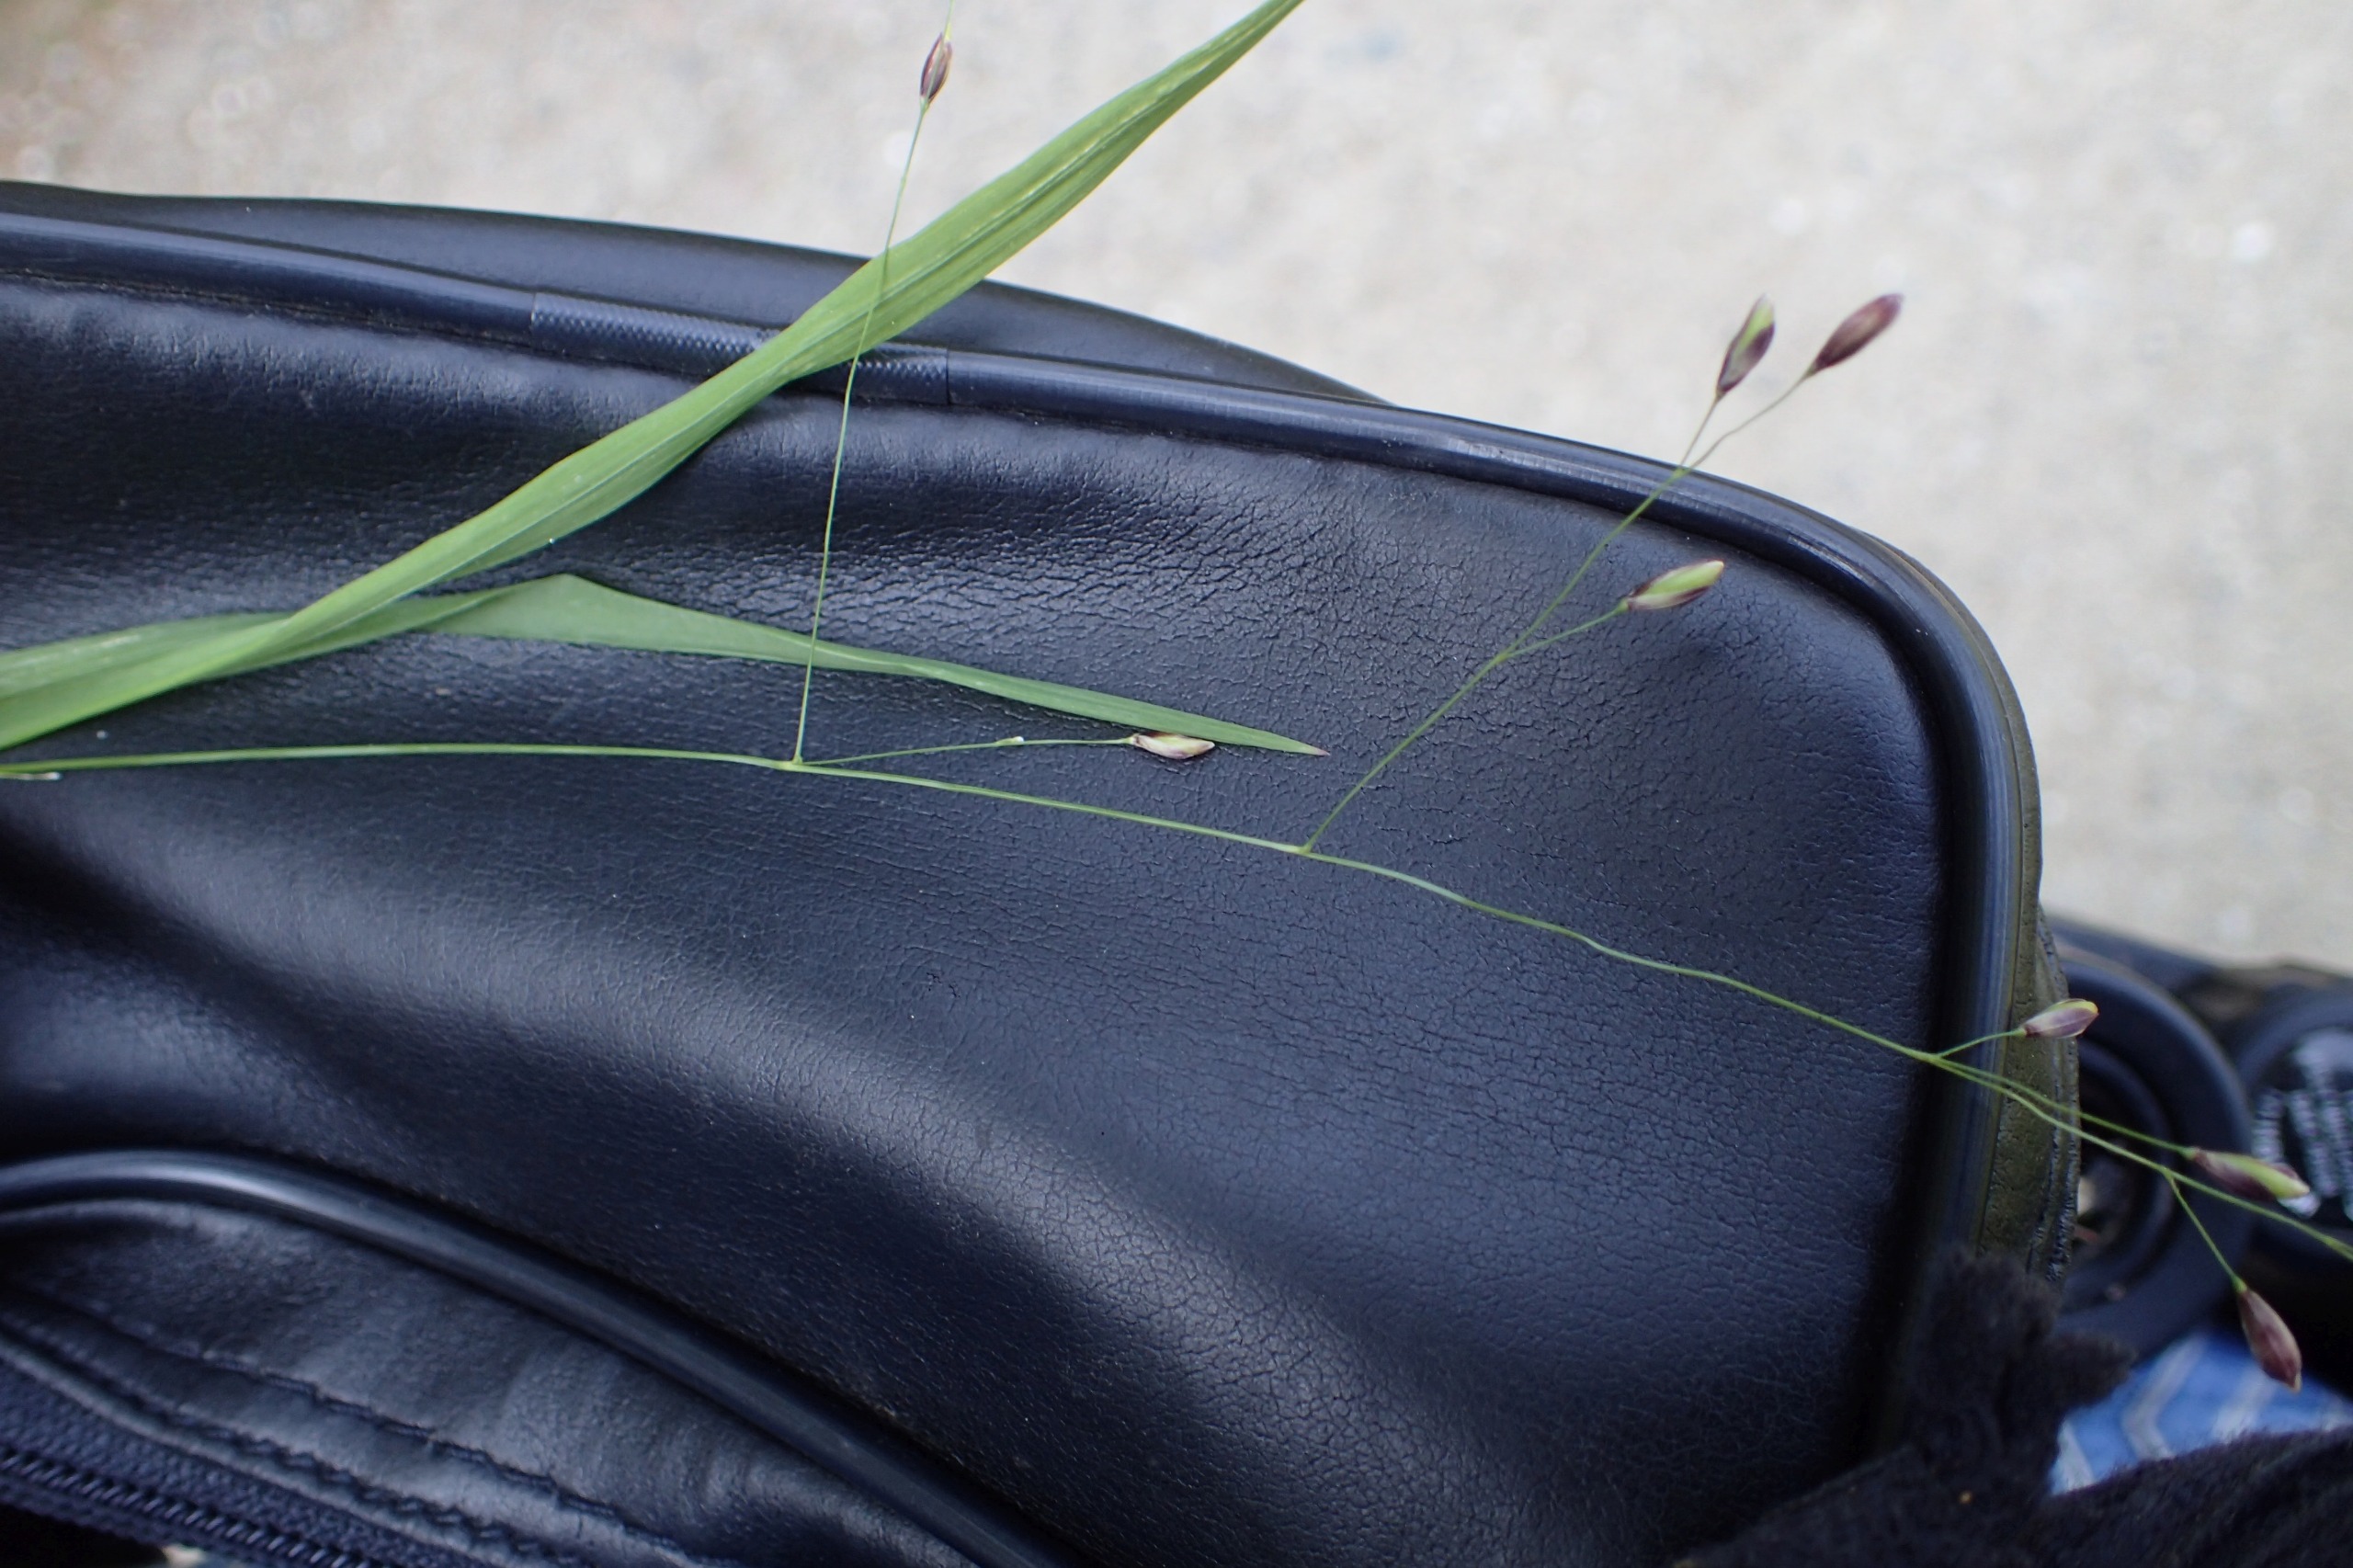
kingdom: Plantae
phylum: Tracheophyta
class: Liliopsida
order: Poales
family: Poaceae
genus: Melica
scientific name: Melica uniflora
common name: Enblomstret flitteraks
